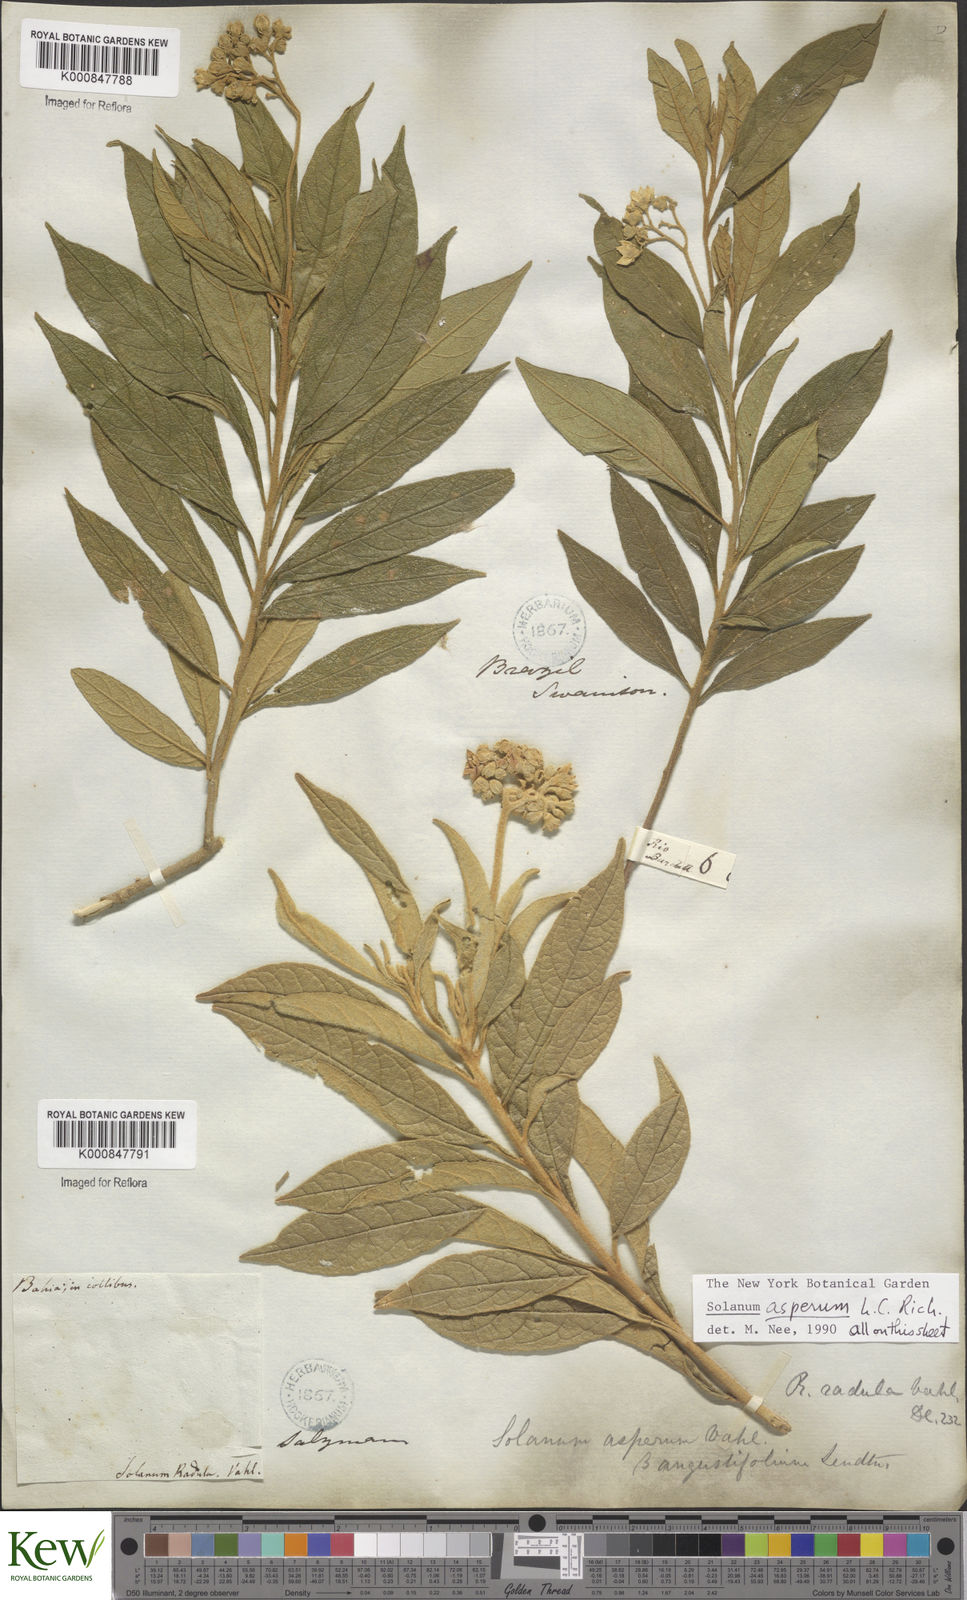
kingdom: Plantae
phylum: Tracheophyta
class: Magnoliopsida
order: Solanales
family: Solanaceae
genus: Solanum
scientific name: Solanum asperum
